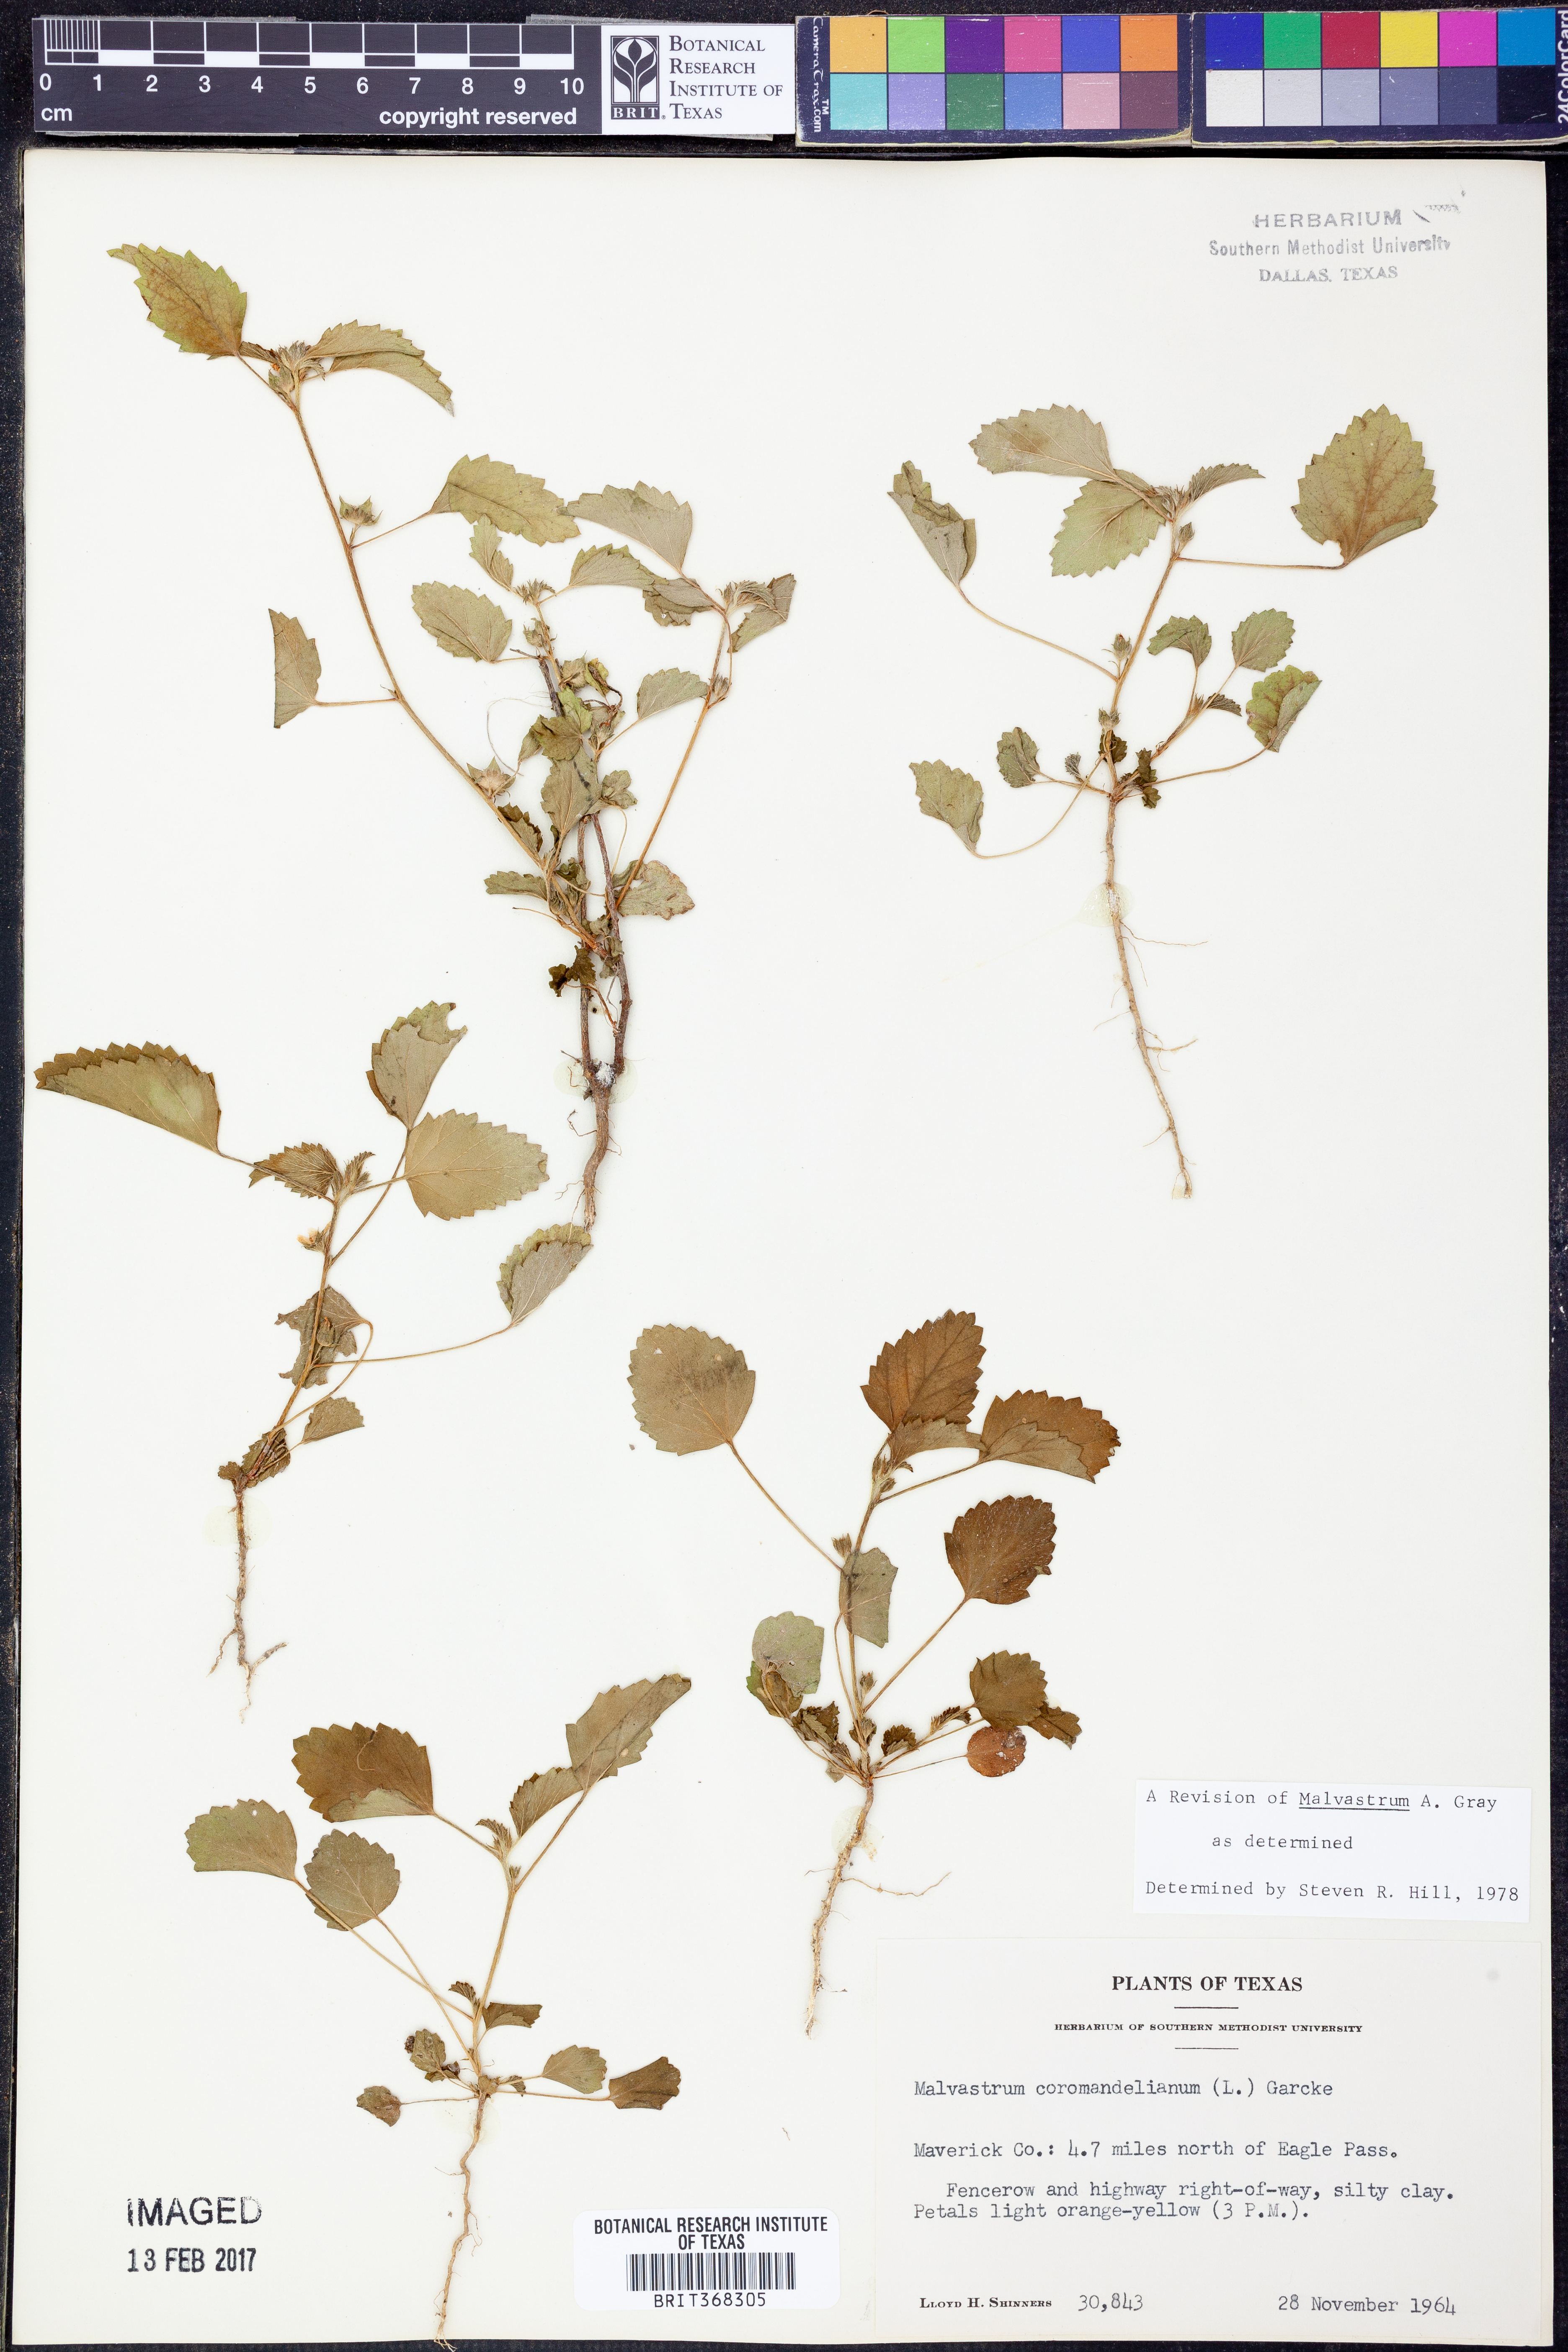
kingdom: Plantae
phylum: Tracheophyta
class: Magnoliopsida
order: Malvales
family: Malvaceae
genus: Malvastrum
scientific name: Malvastrum coromandelianum
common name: Threelobe false mallow
